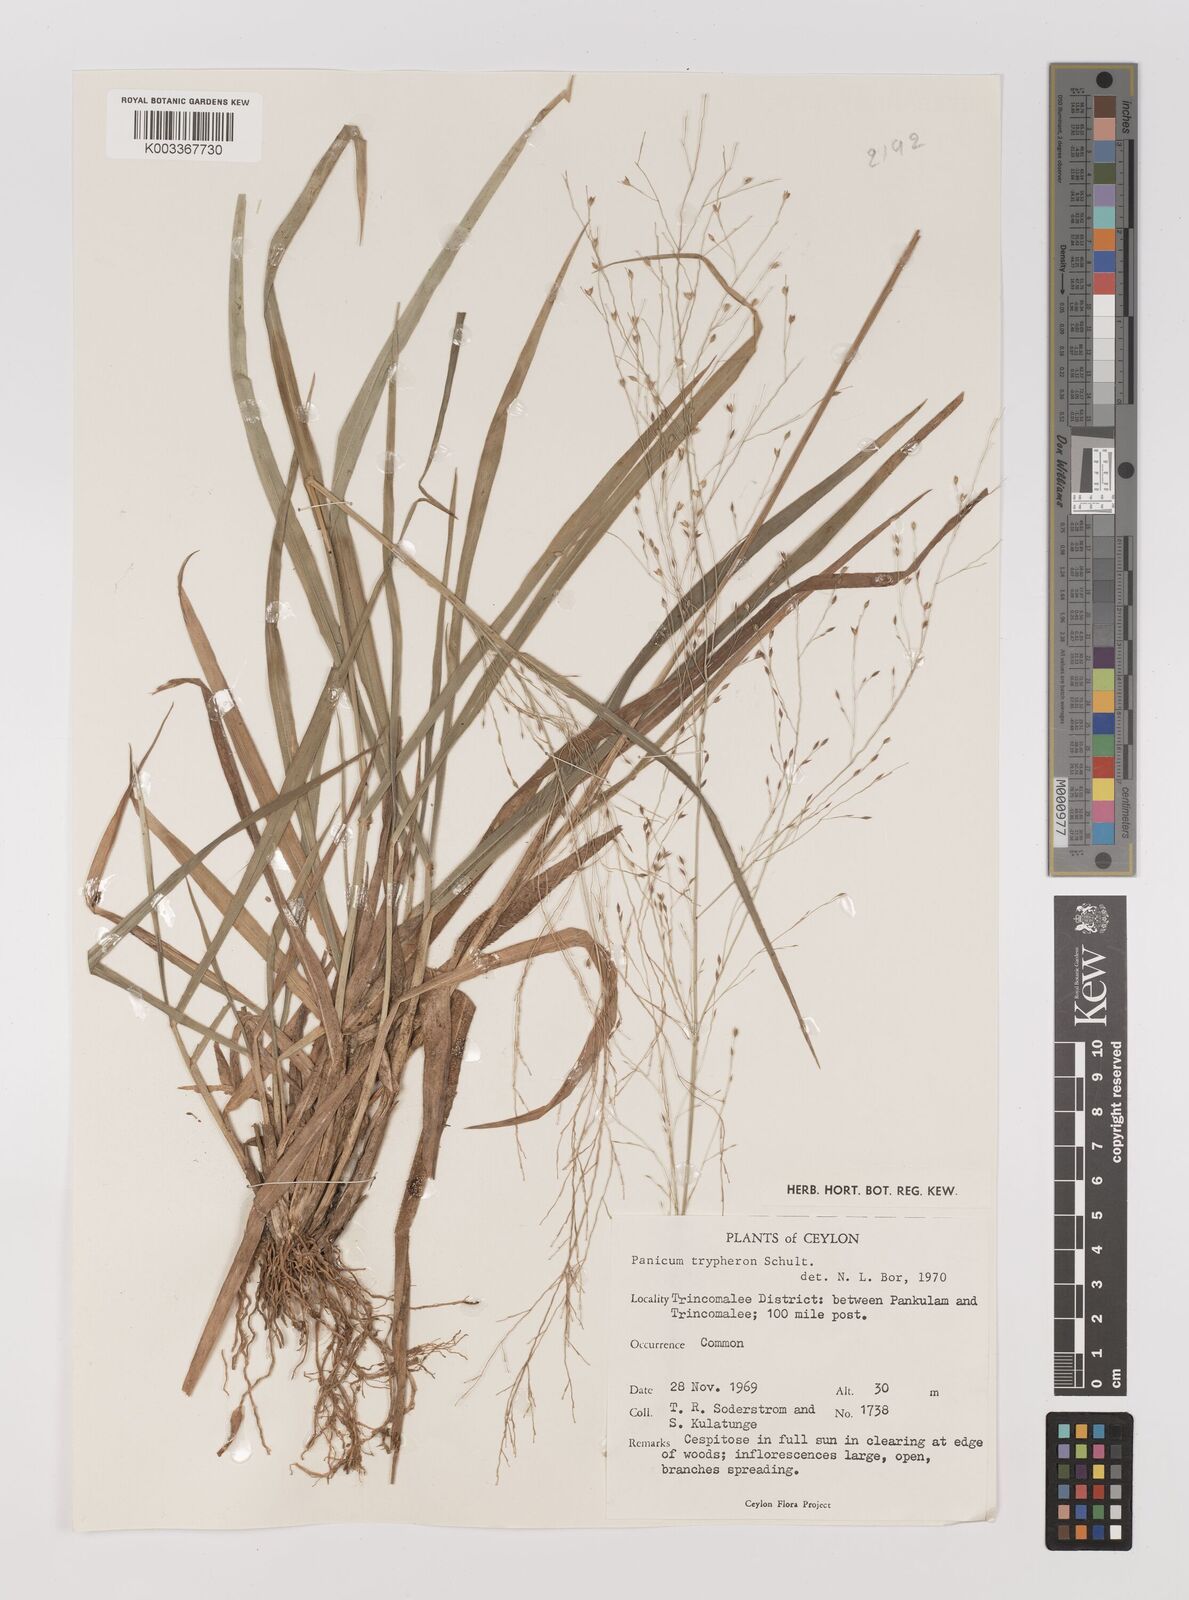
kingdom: Plantae
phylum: Tracheophyta
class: Liliopsida
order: Poales
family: Poaceae
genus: Panicum
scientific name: Panicum curviflorum
